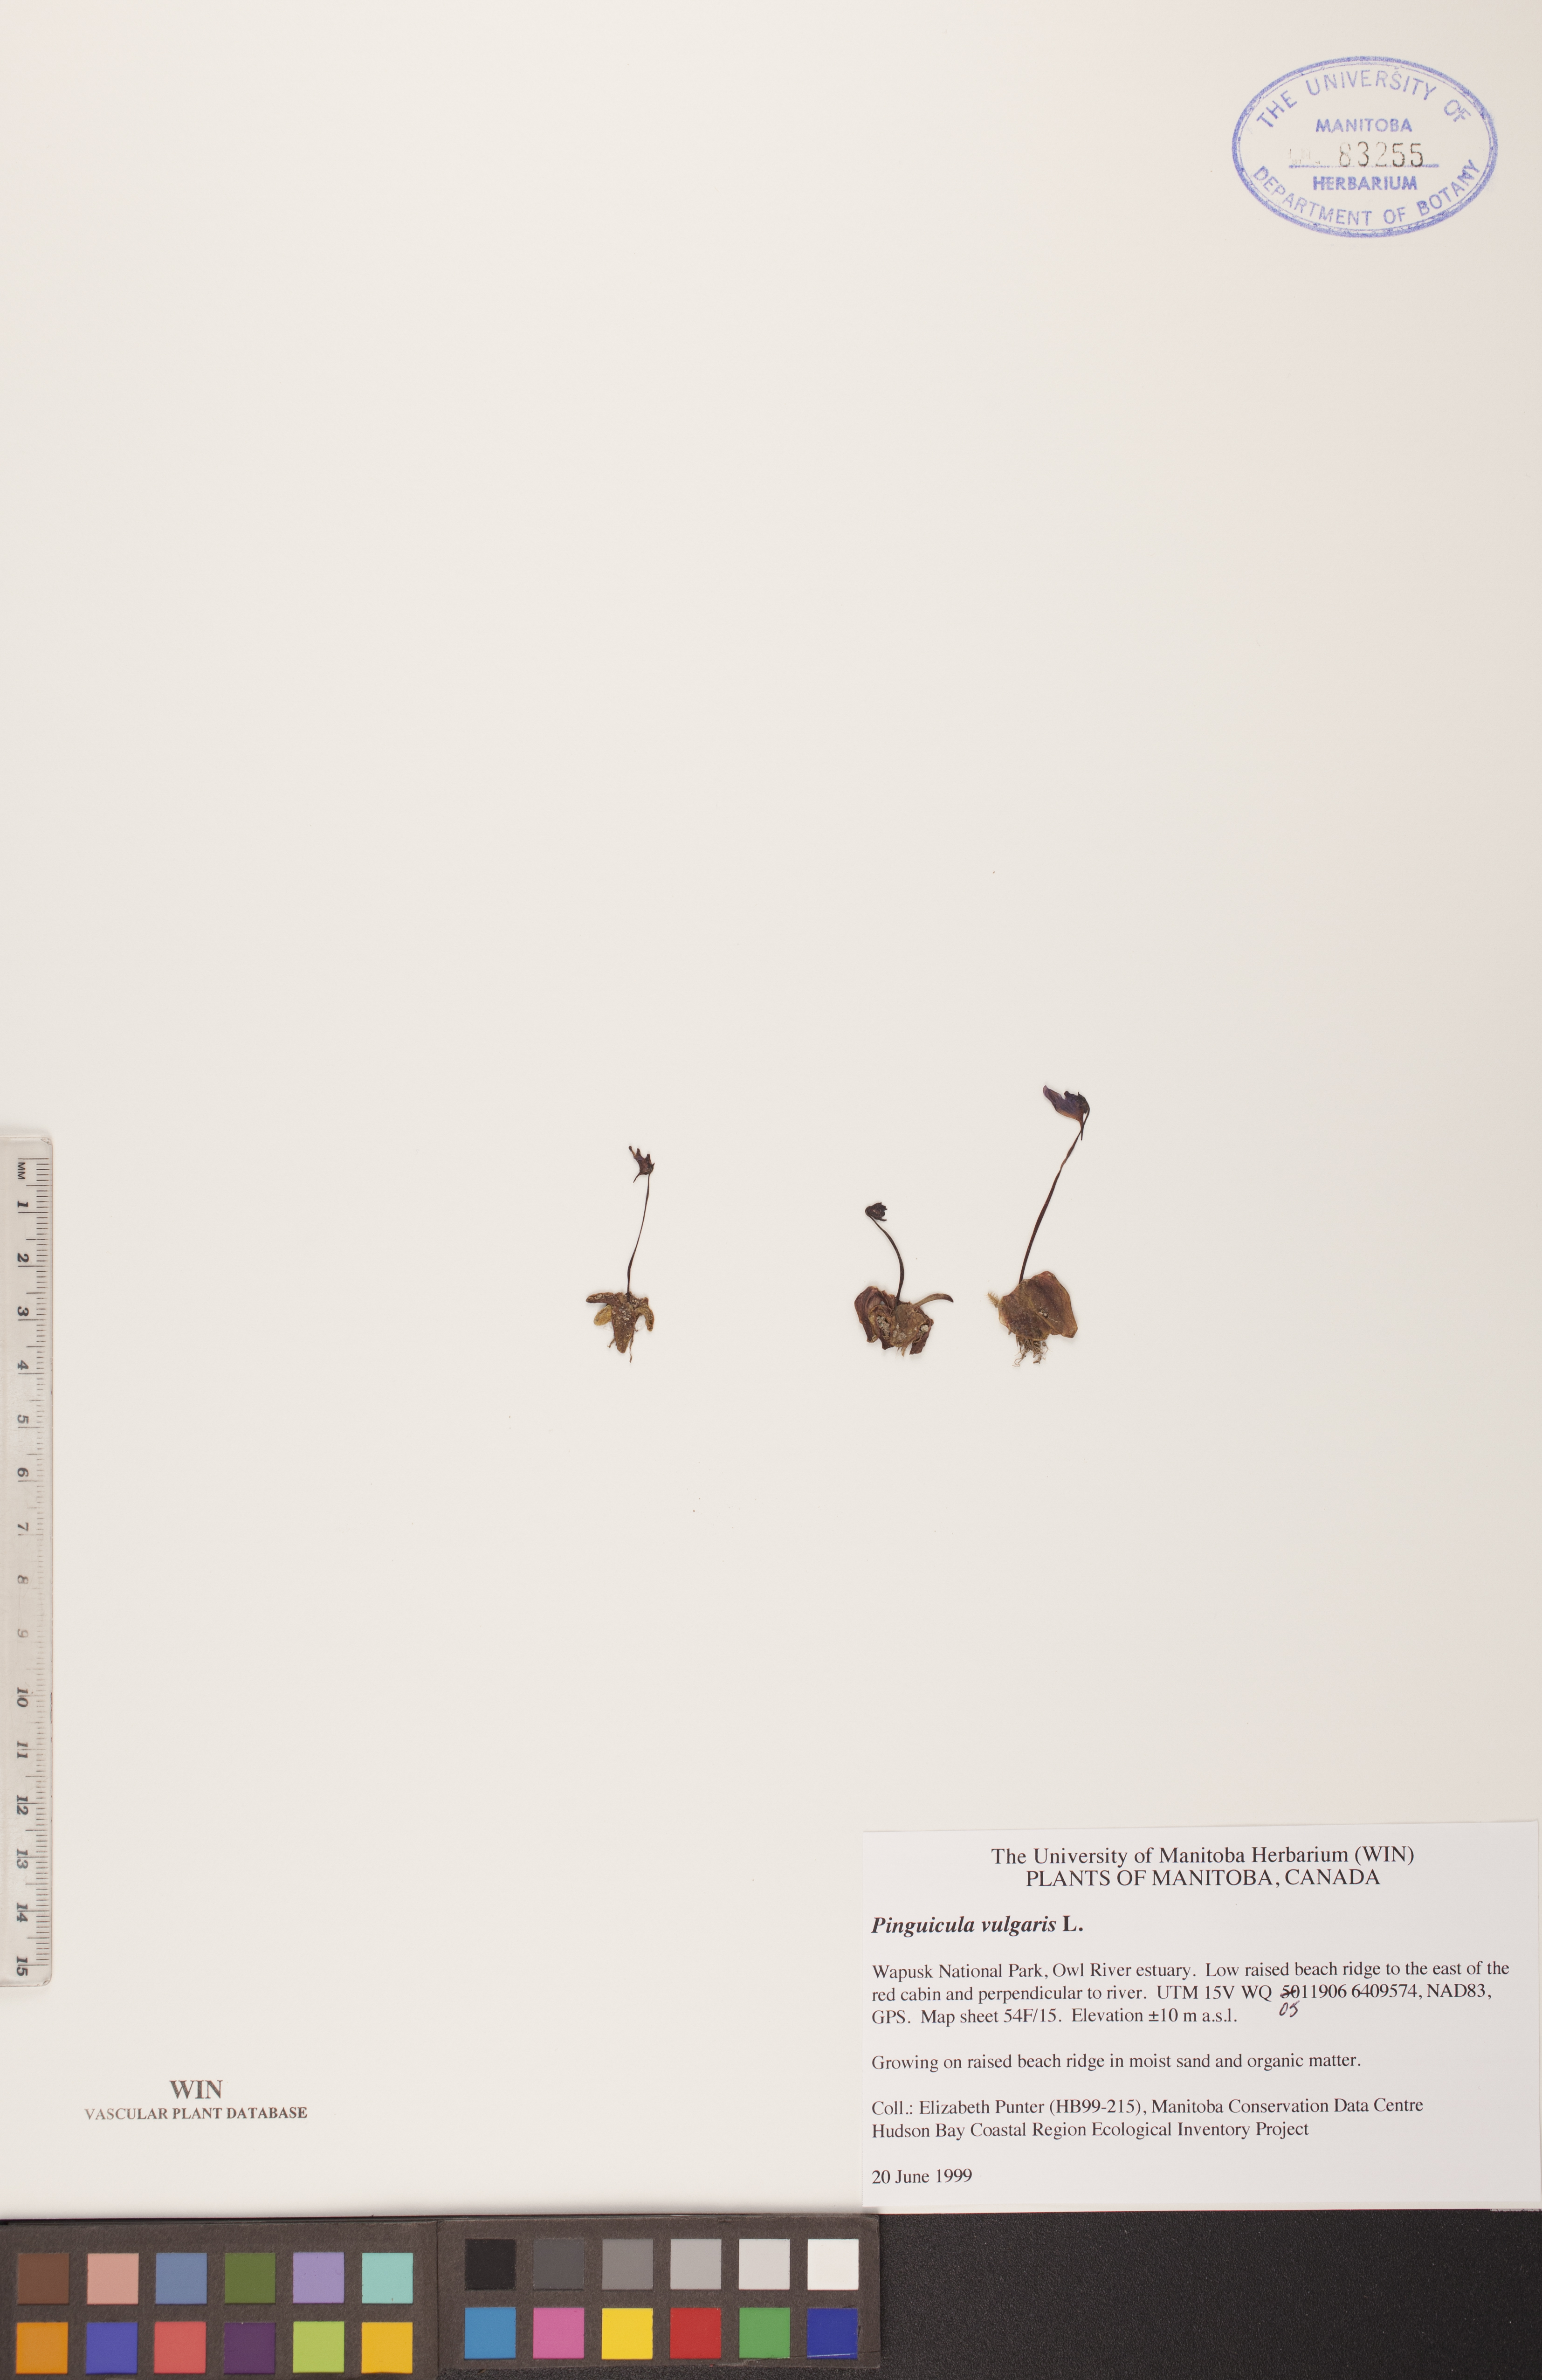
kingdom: Plantae
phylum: Tracheophyta
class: Magnoliopsida
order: Lamiales
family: Lentibulariaceae
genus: Pinguicula
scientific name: Pinguicula vulgaris
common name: Common butterwort
